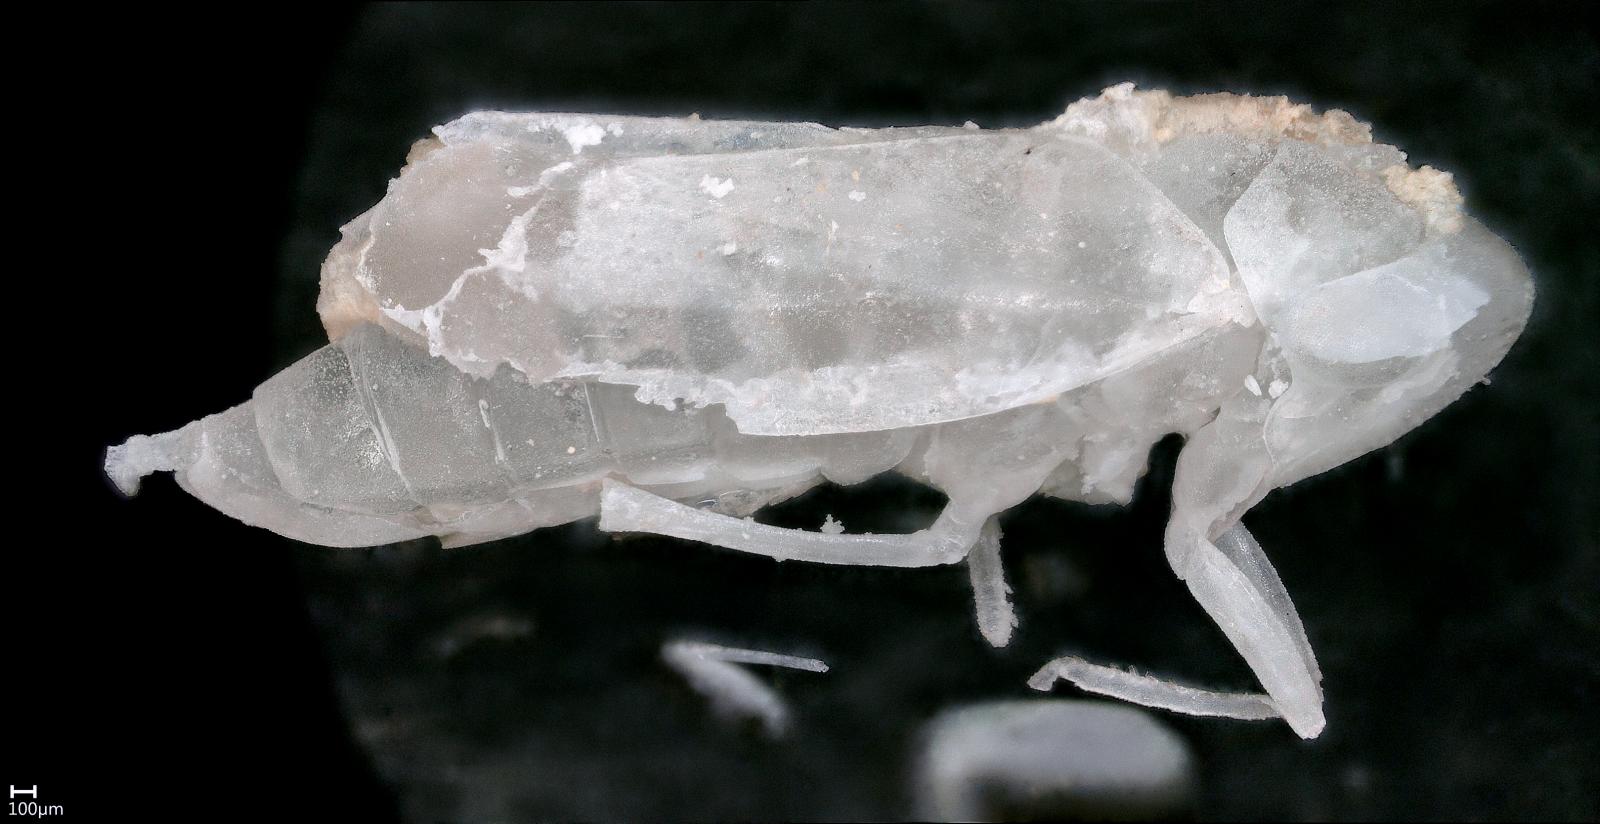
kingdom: Animalia
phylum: Arthropoda
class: Insecta
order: Hemiptera
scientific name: Hemiptera
